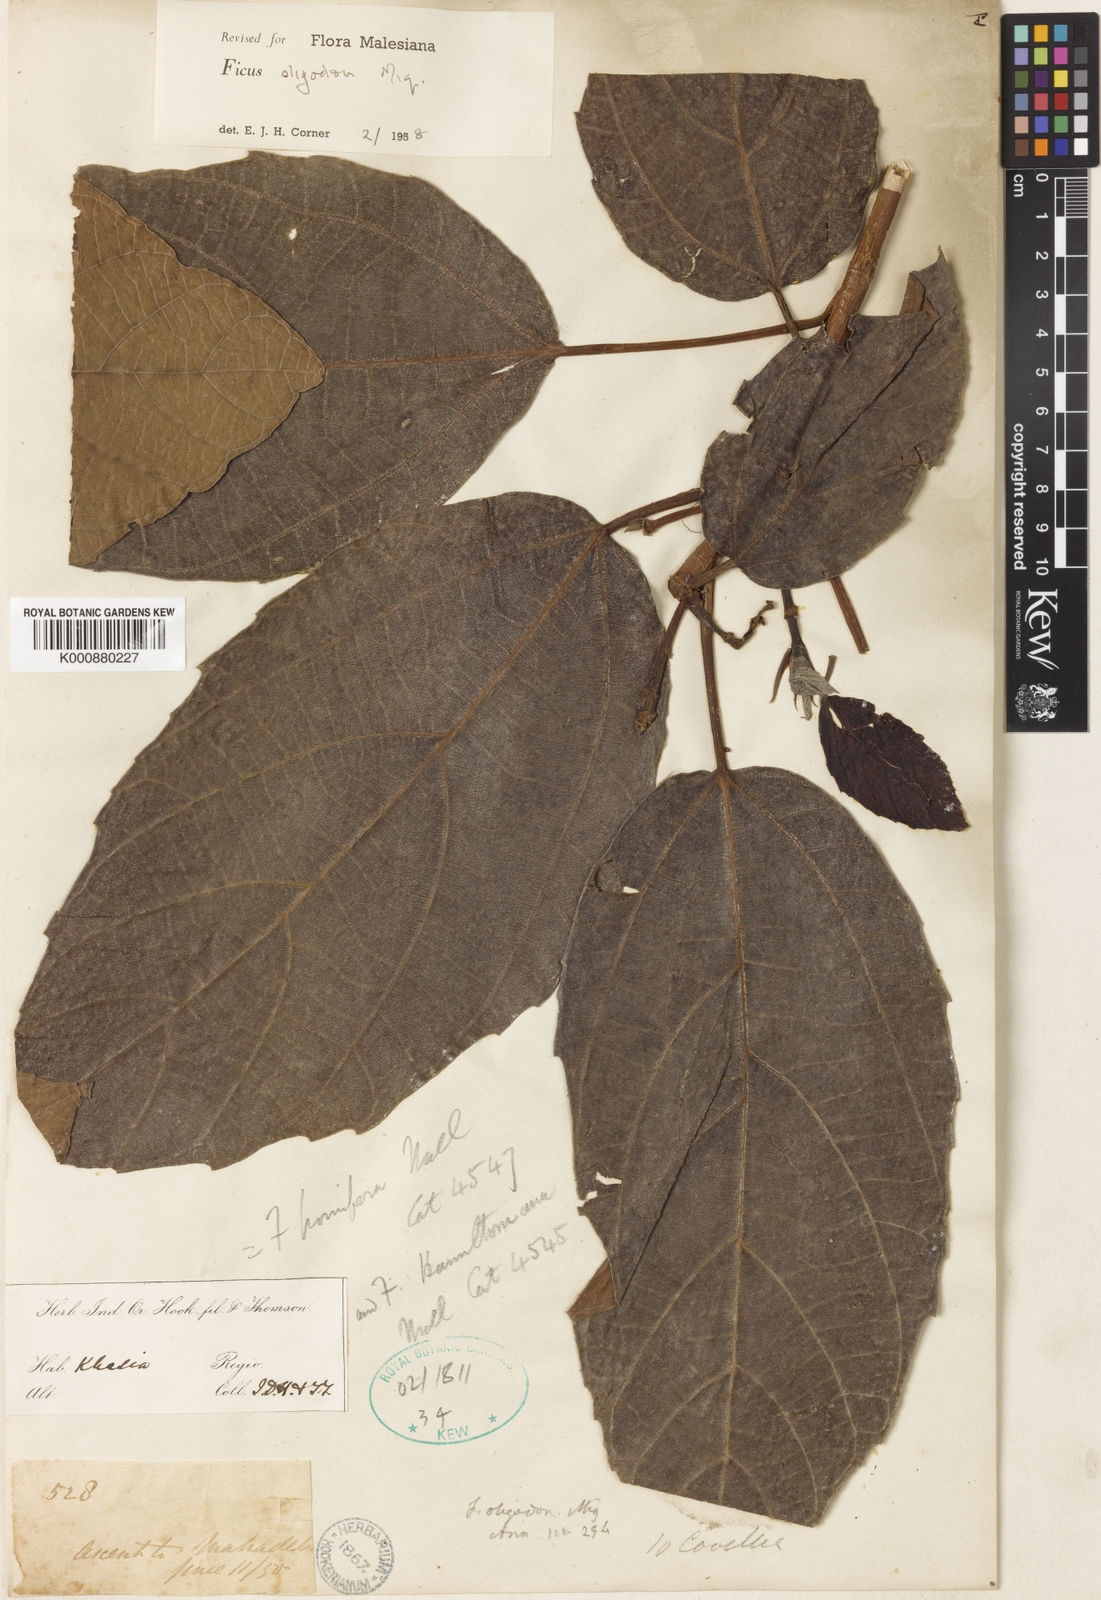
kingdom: Plantae
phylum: Tracheophyta
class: Magnoliopsida
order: Rosales
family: Moraceae
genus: Ficus
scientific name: Ficus auriculata
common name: Roxburgh fig
